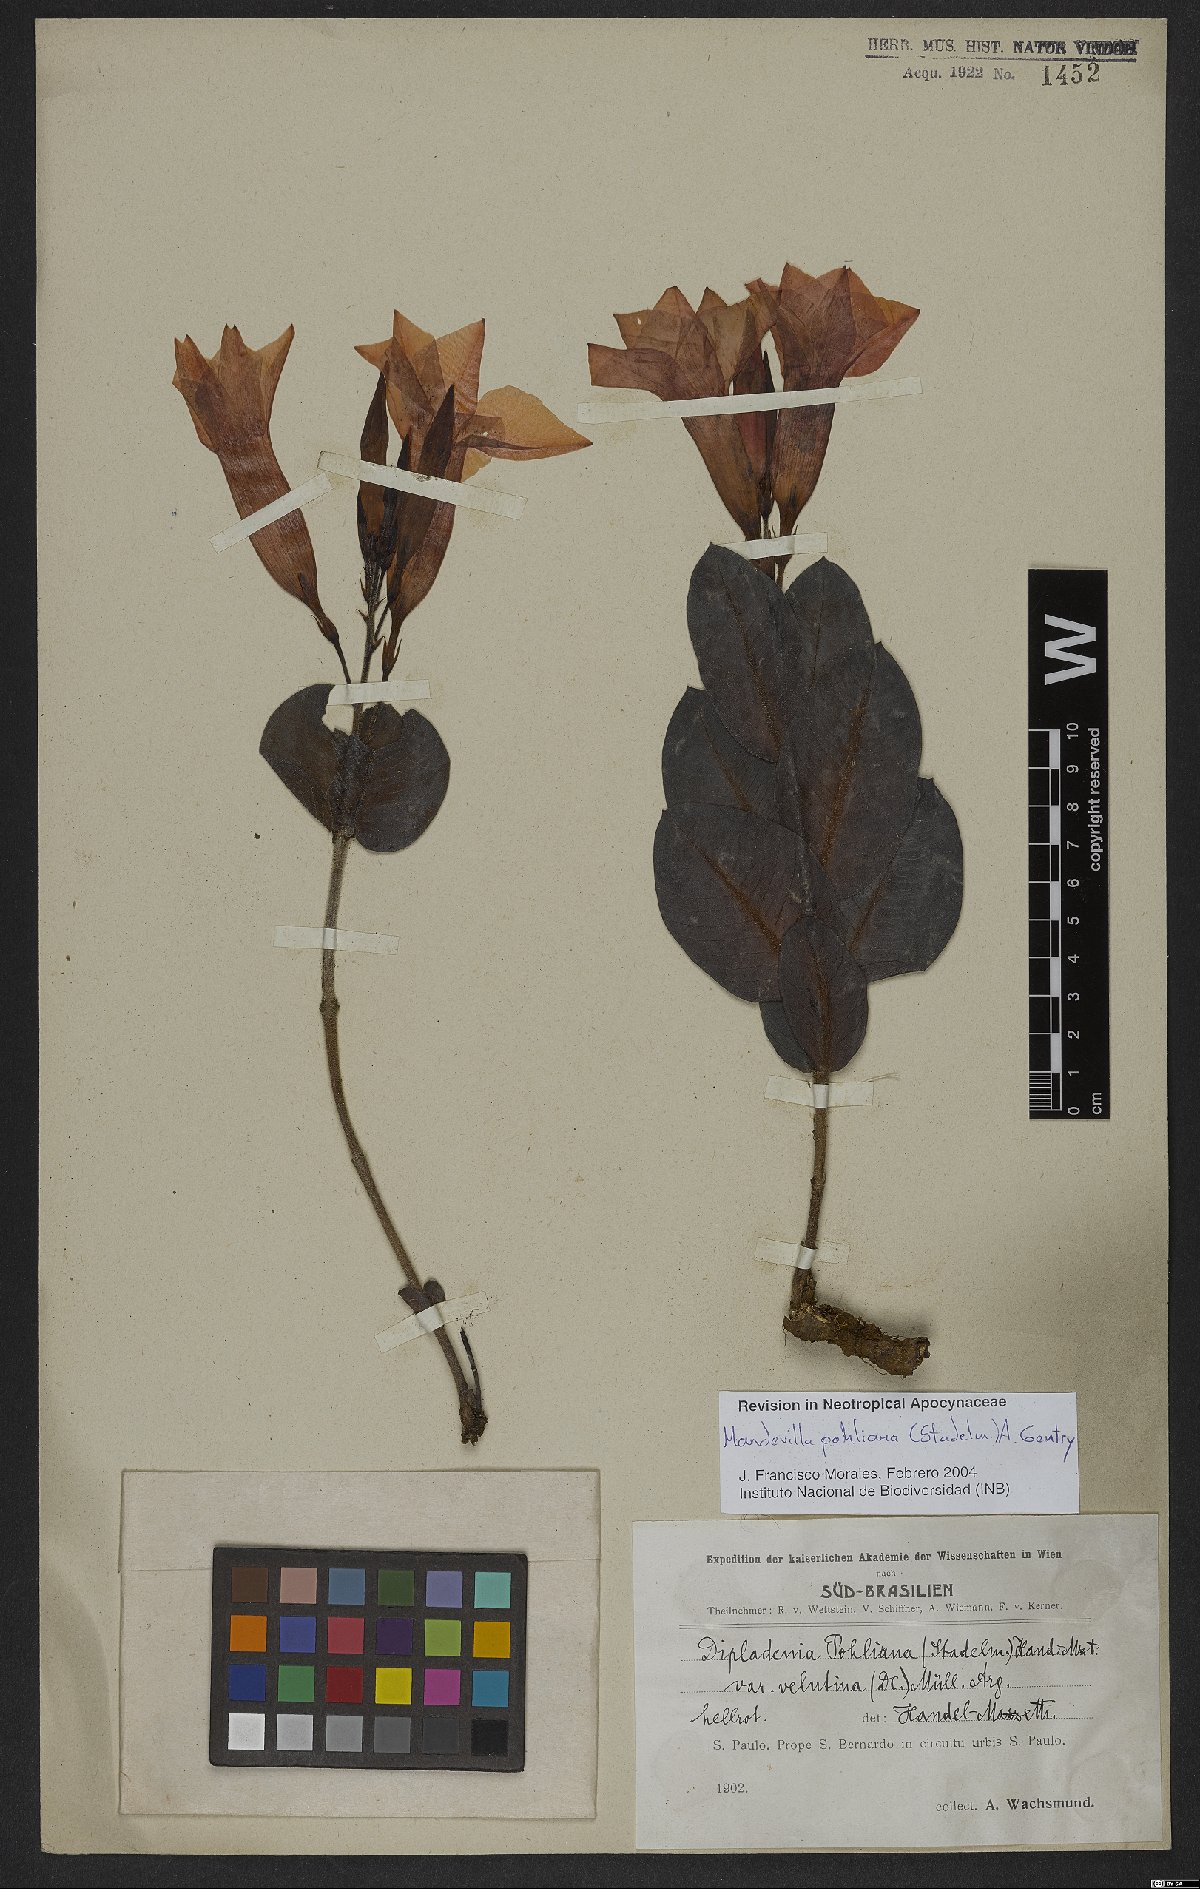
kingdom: Plantae
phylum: Tracheophyta
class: Magnoliopsida
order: Gentianales
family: Apocynaceae
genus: Mandevilla
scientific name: Mandevilla pohliana
